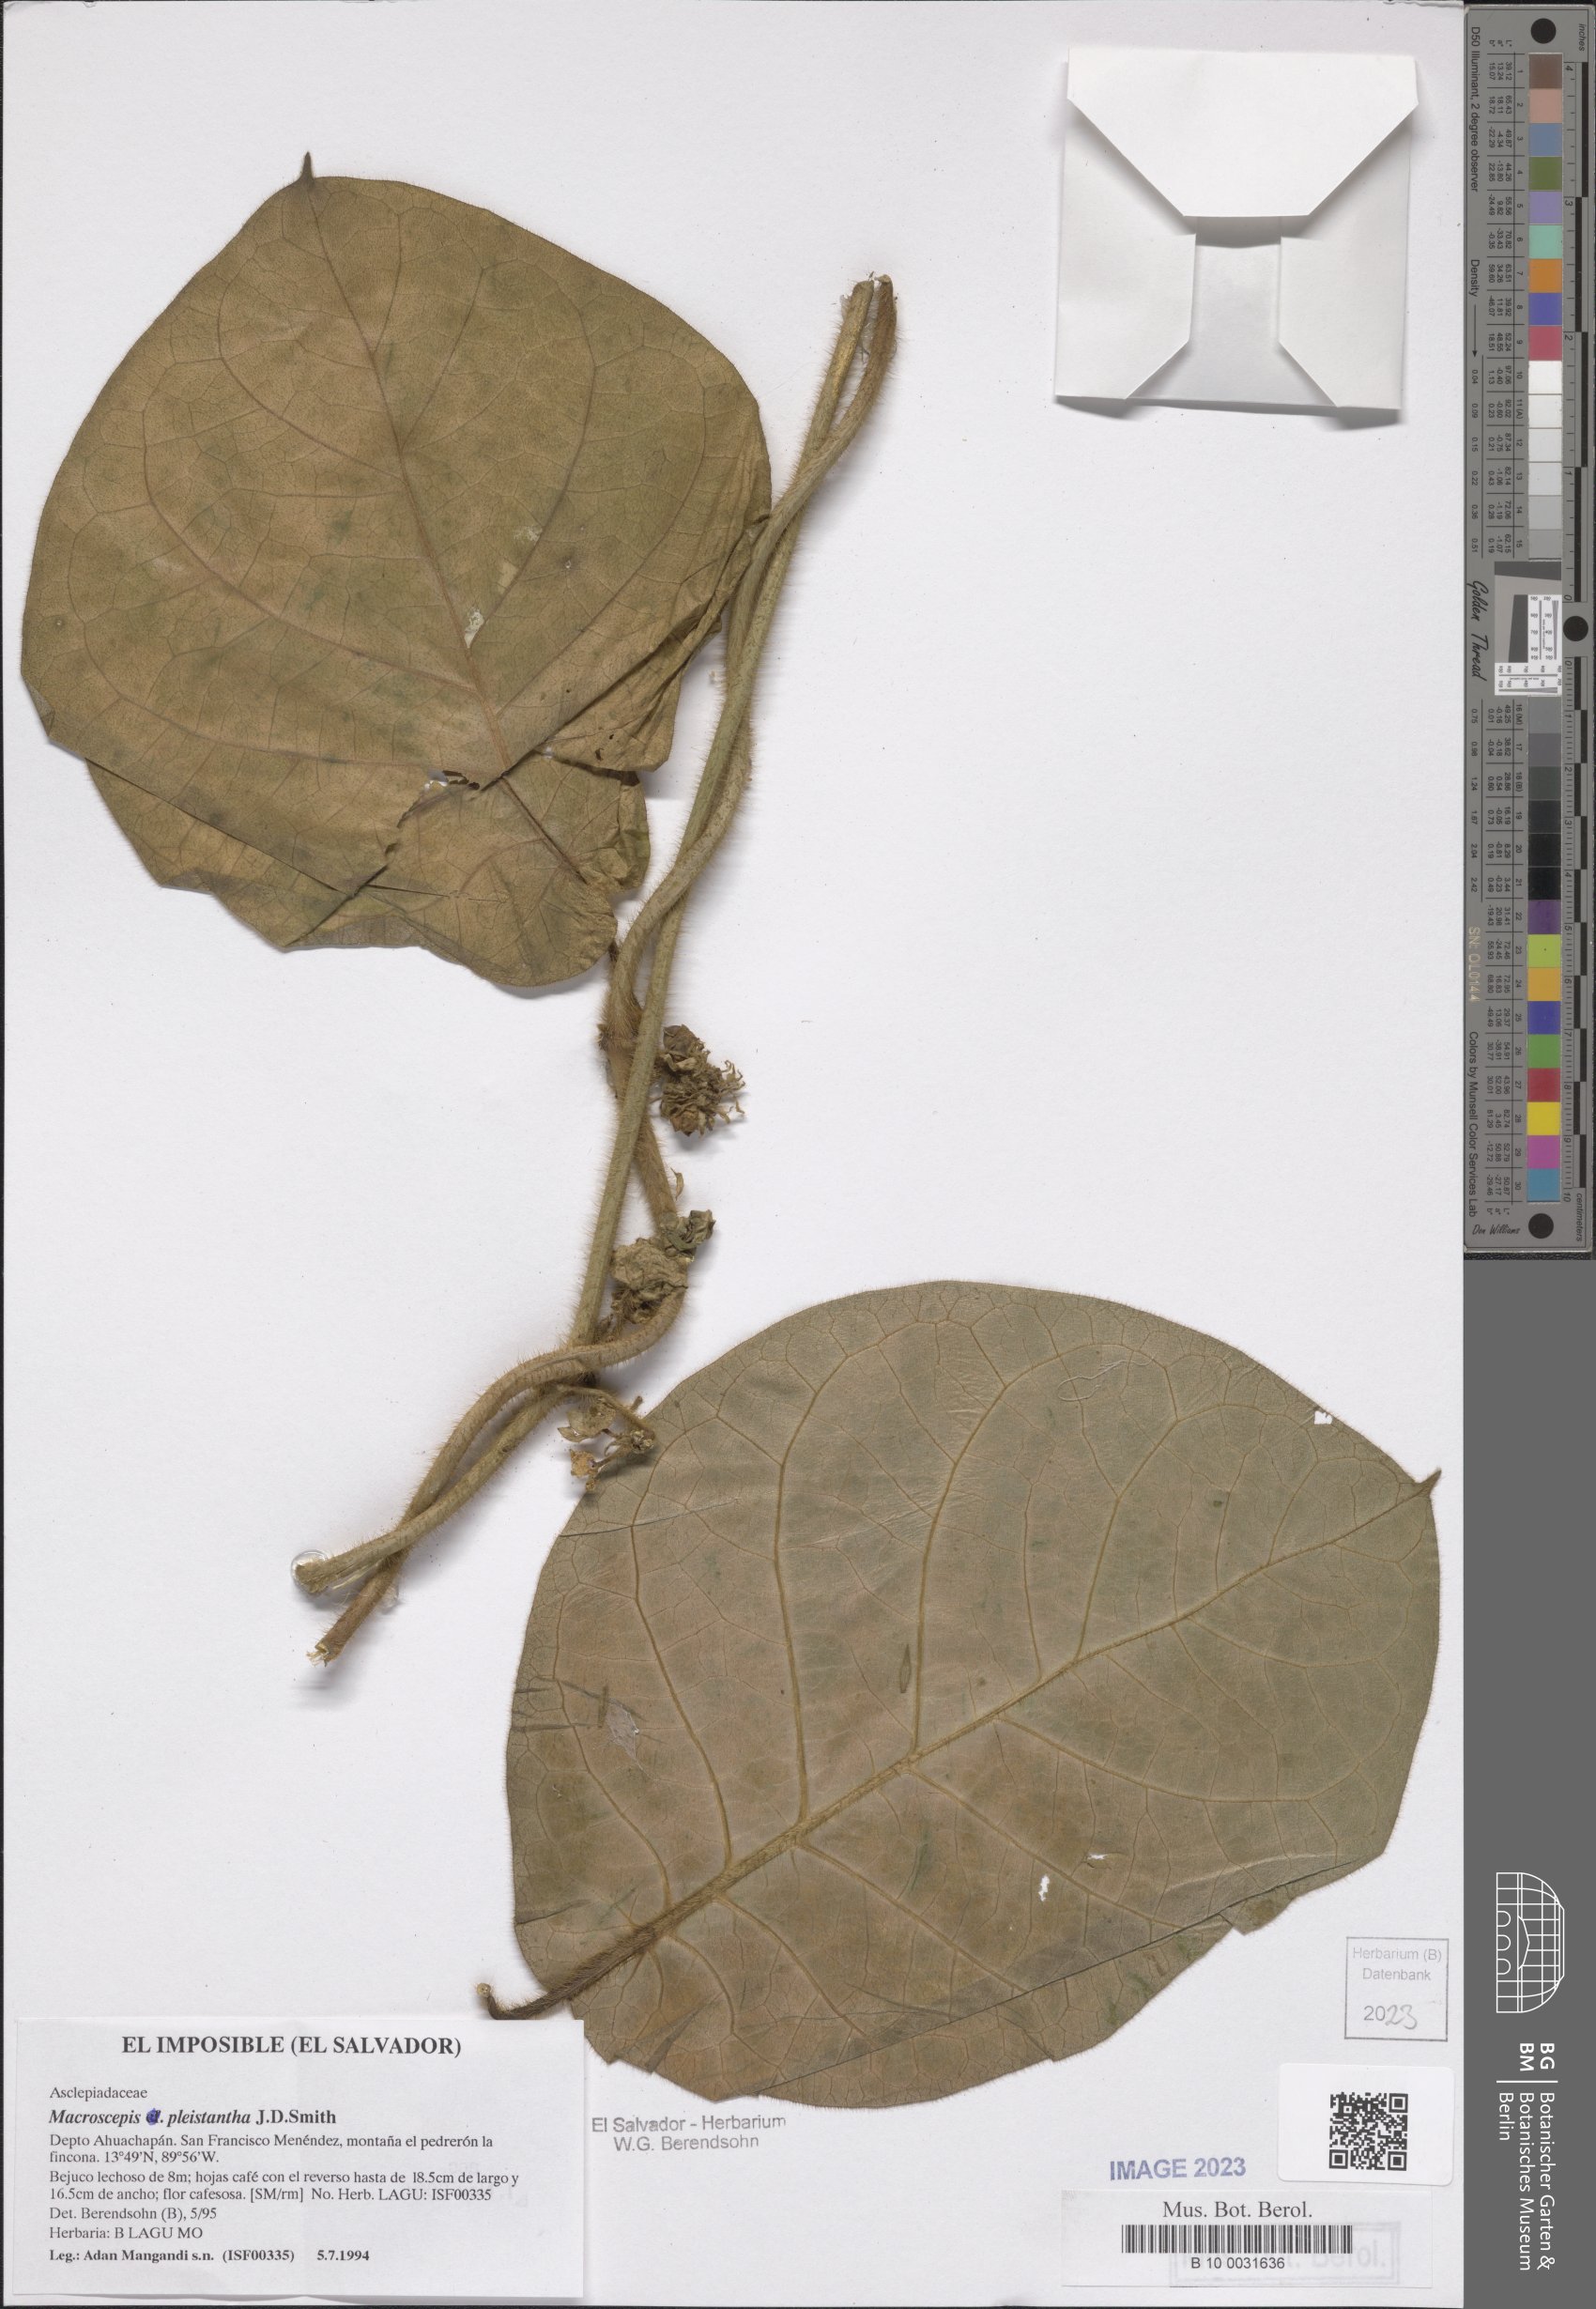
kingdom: Plantae
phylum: Tracheophyta
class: Magnoliopsida
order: Gentianales
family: Apocynaceae
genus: Macroscepis
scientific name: Macroscepis pleistantha
